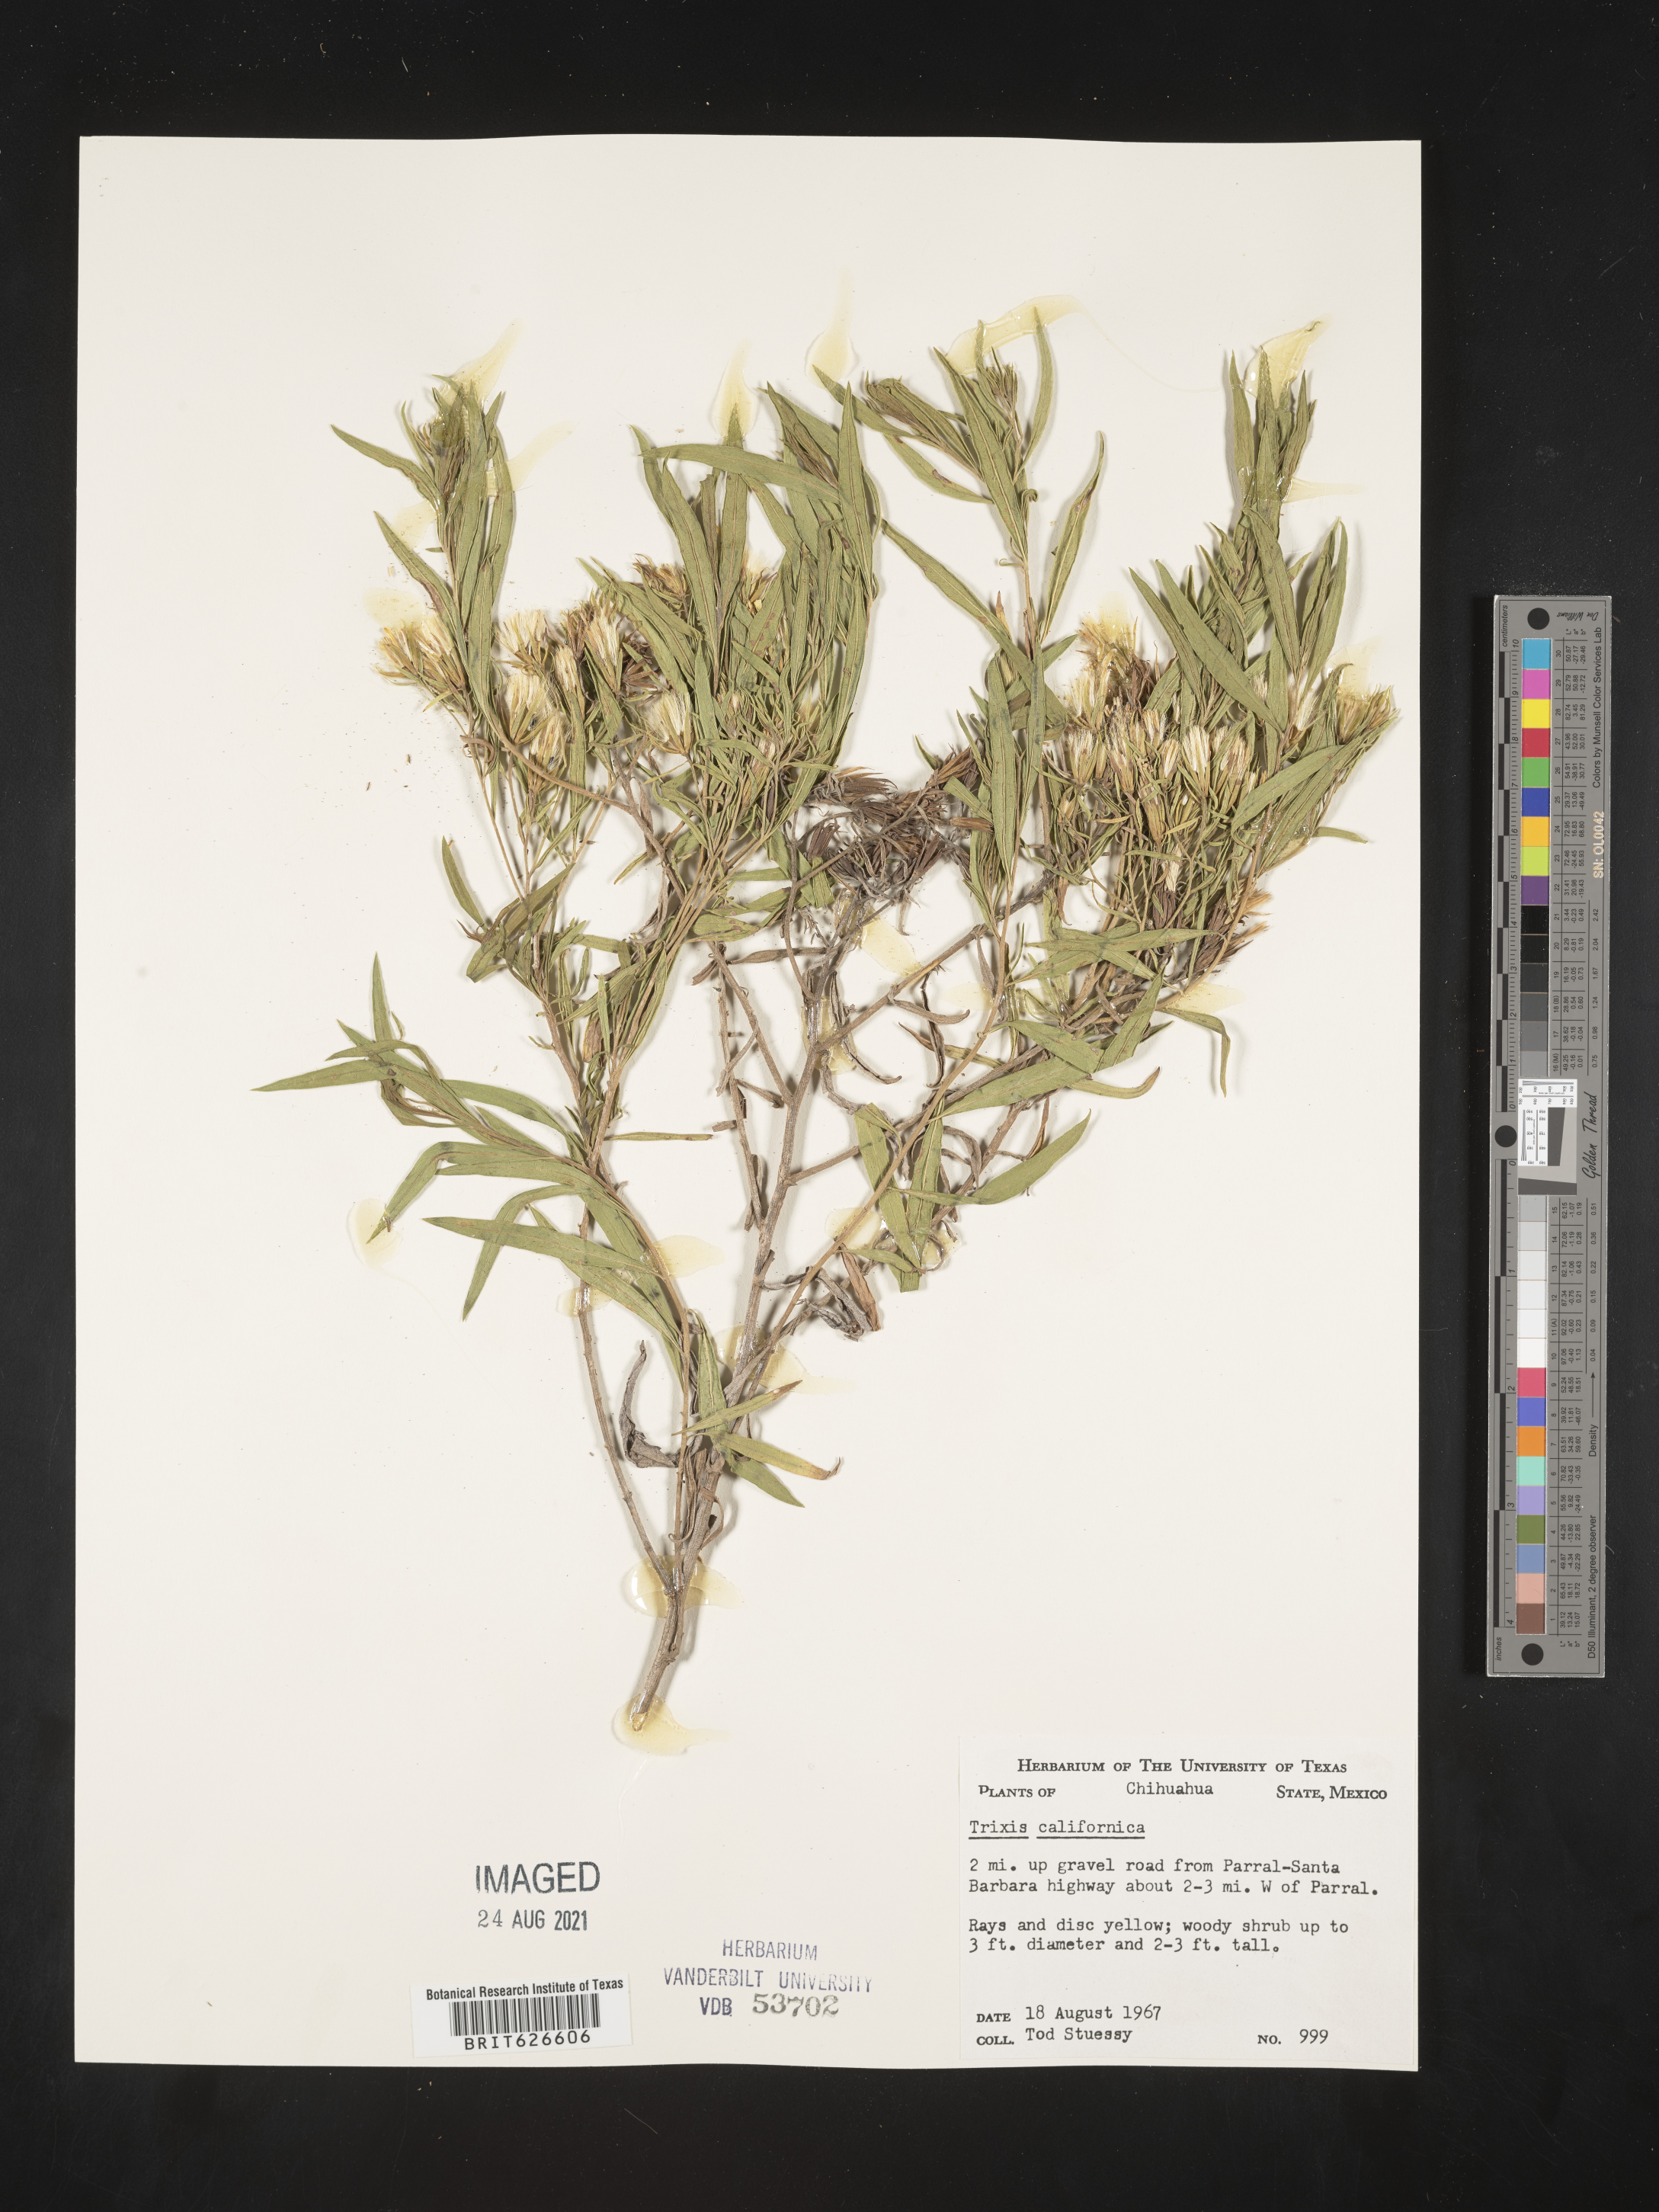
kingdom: Plantae
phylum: Tracheophyta
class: Magnoliopsida
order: Asterales
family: Asteraceae
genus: Trixis
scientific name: Trixis
